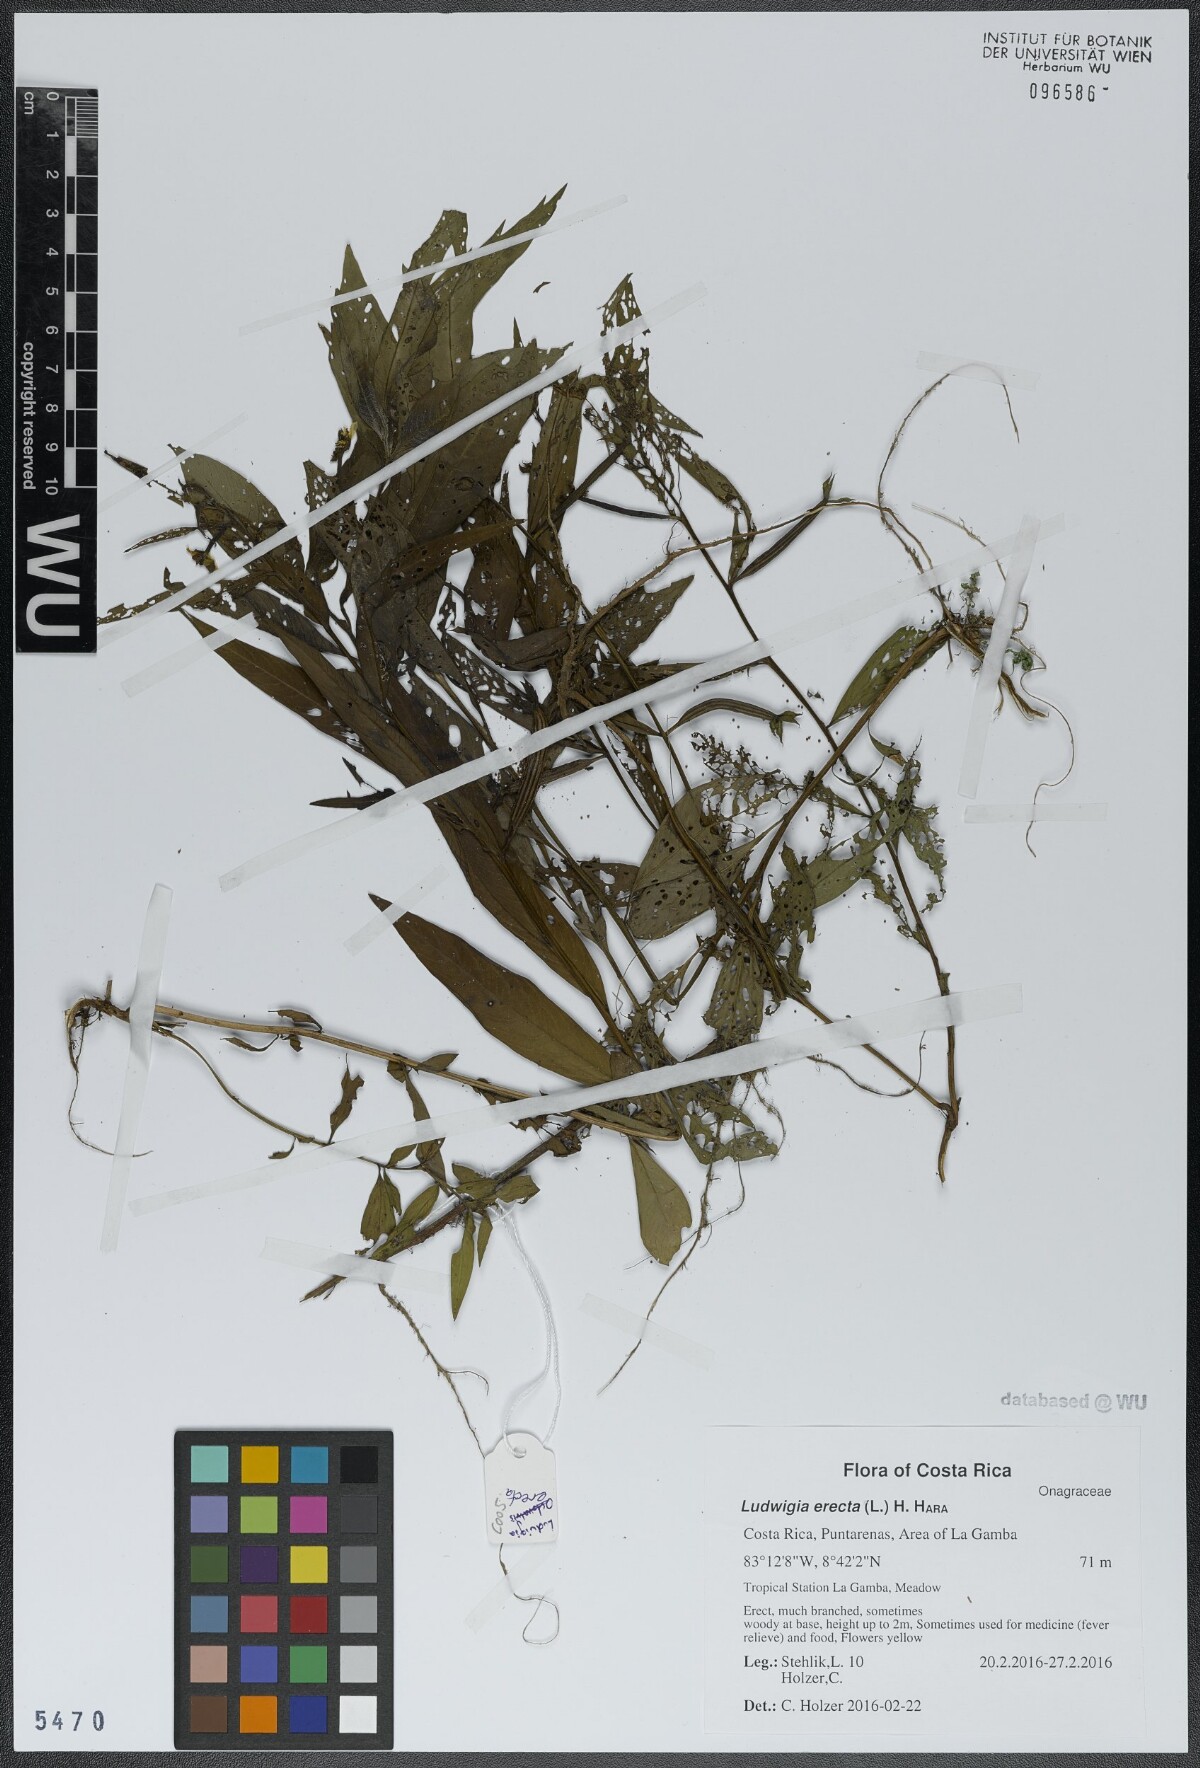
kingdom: Plantae
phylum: Tracheophyta
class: Magnoliopsida
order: Myrtales
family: Onagraceae
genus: Ludwigia
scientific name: Ludwigia erecta
